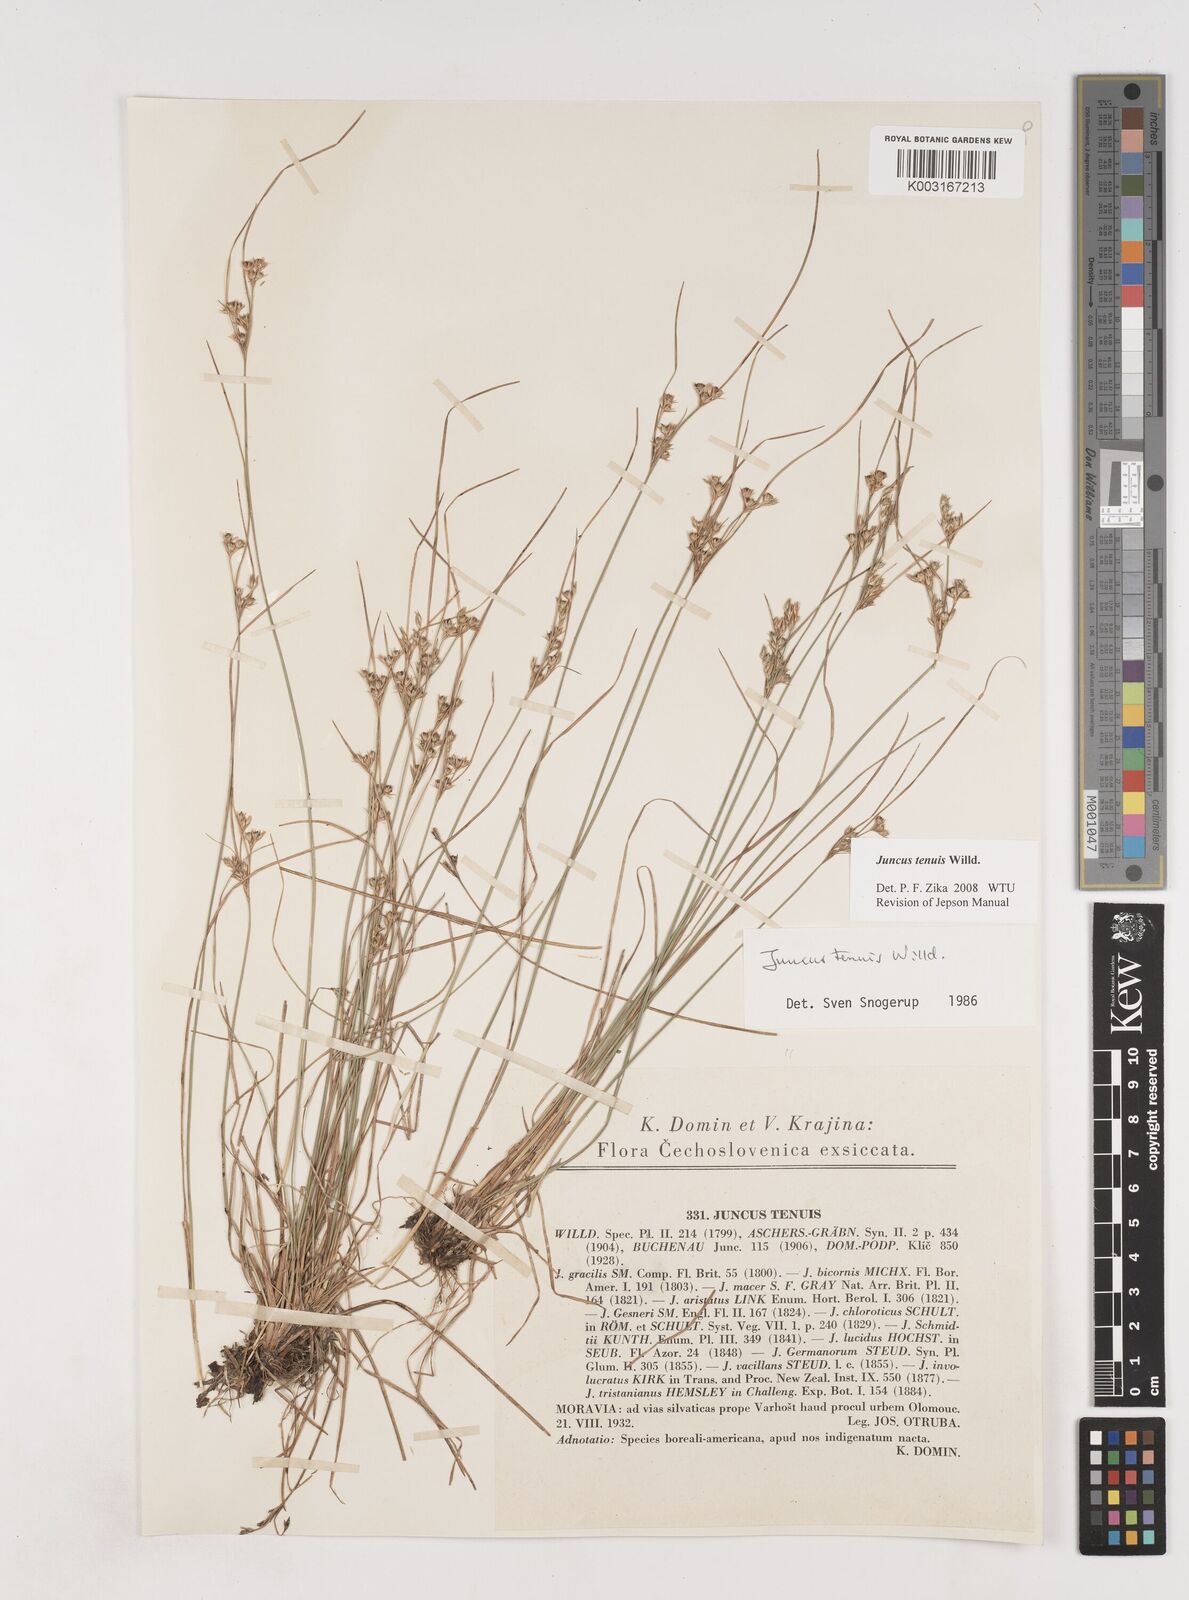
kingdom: Plantae
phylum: Tracheophyta
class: Liliopsida
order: Poales
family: Juncaceae
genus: Juncus
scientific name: Juncus tenuis
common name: Slender rush
